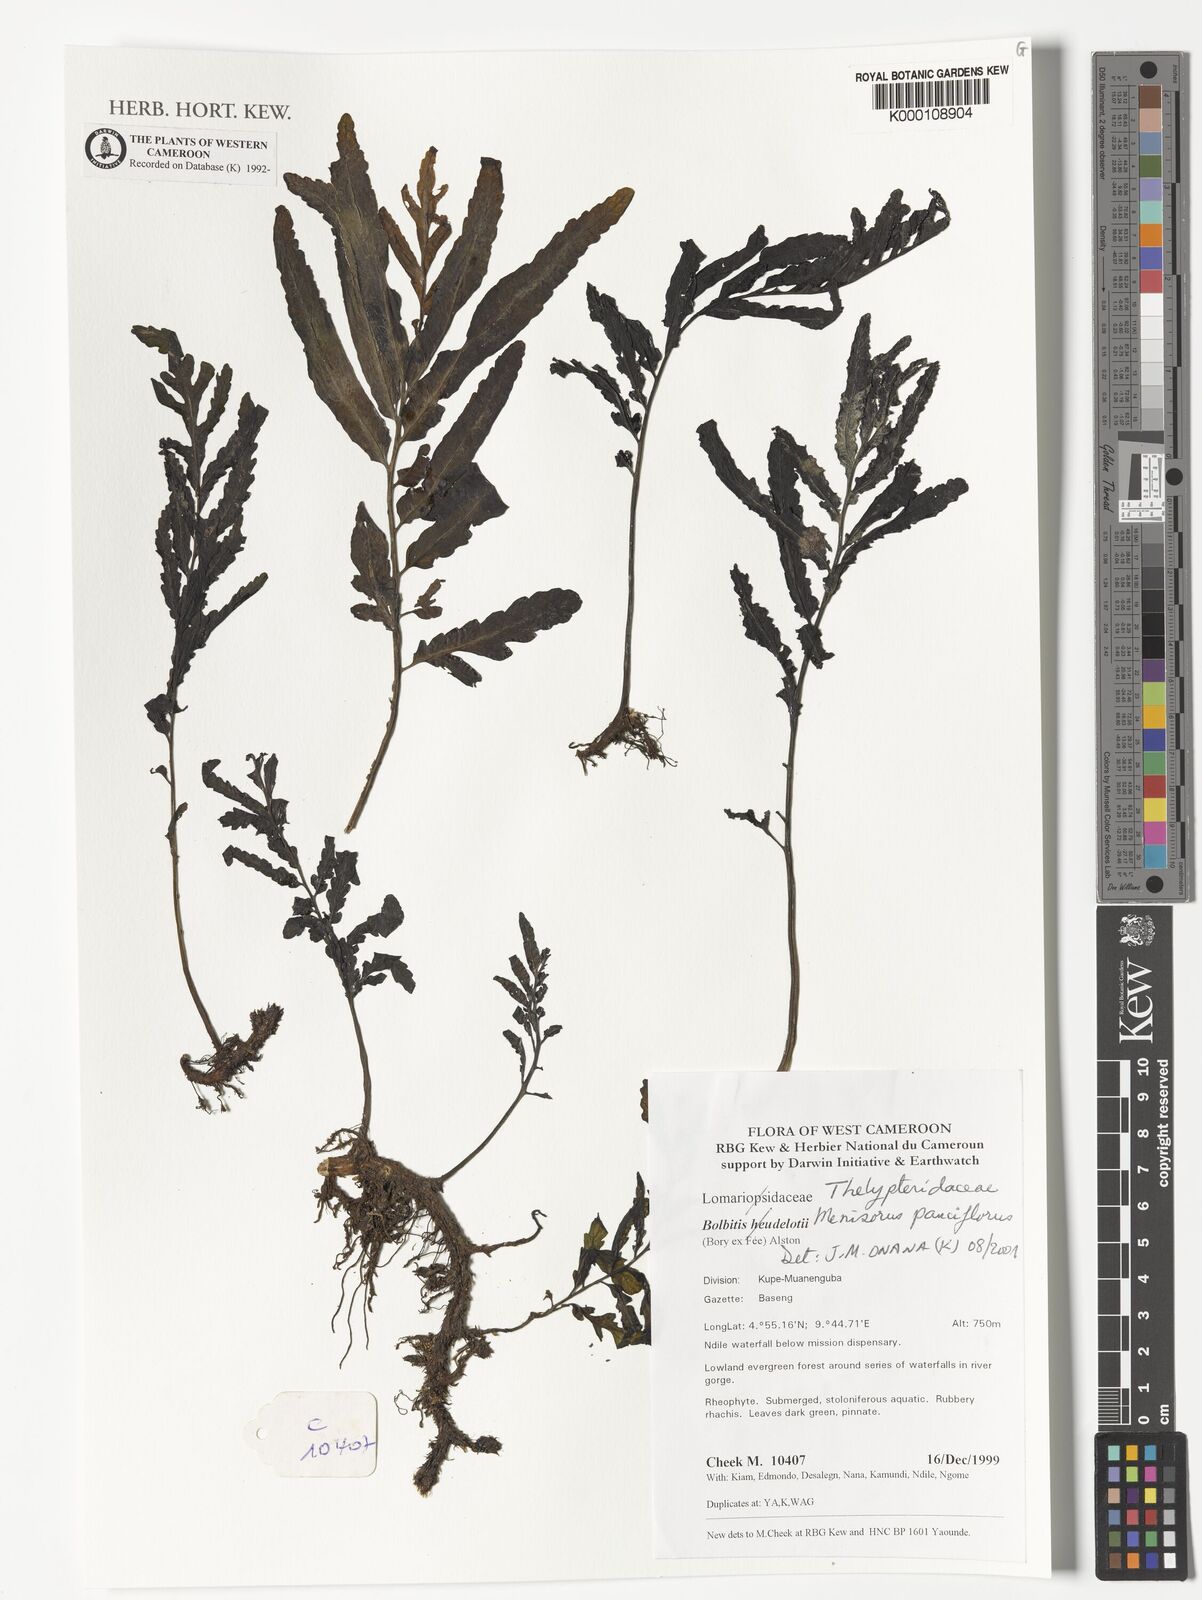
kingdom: Plantae
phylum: Tracheophyta
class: Polypodiopsida
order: Polypodiales
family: Thelypteridaceae
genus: Menisorus
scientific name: Menisorus pauciflorus
